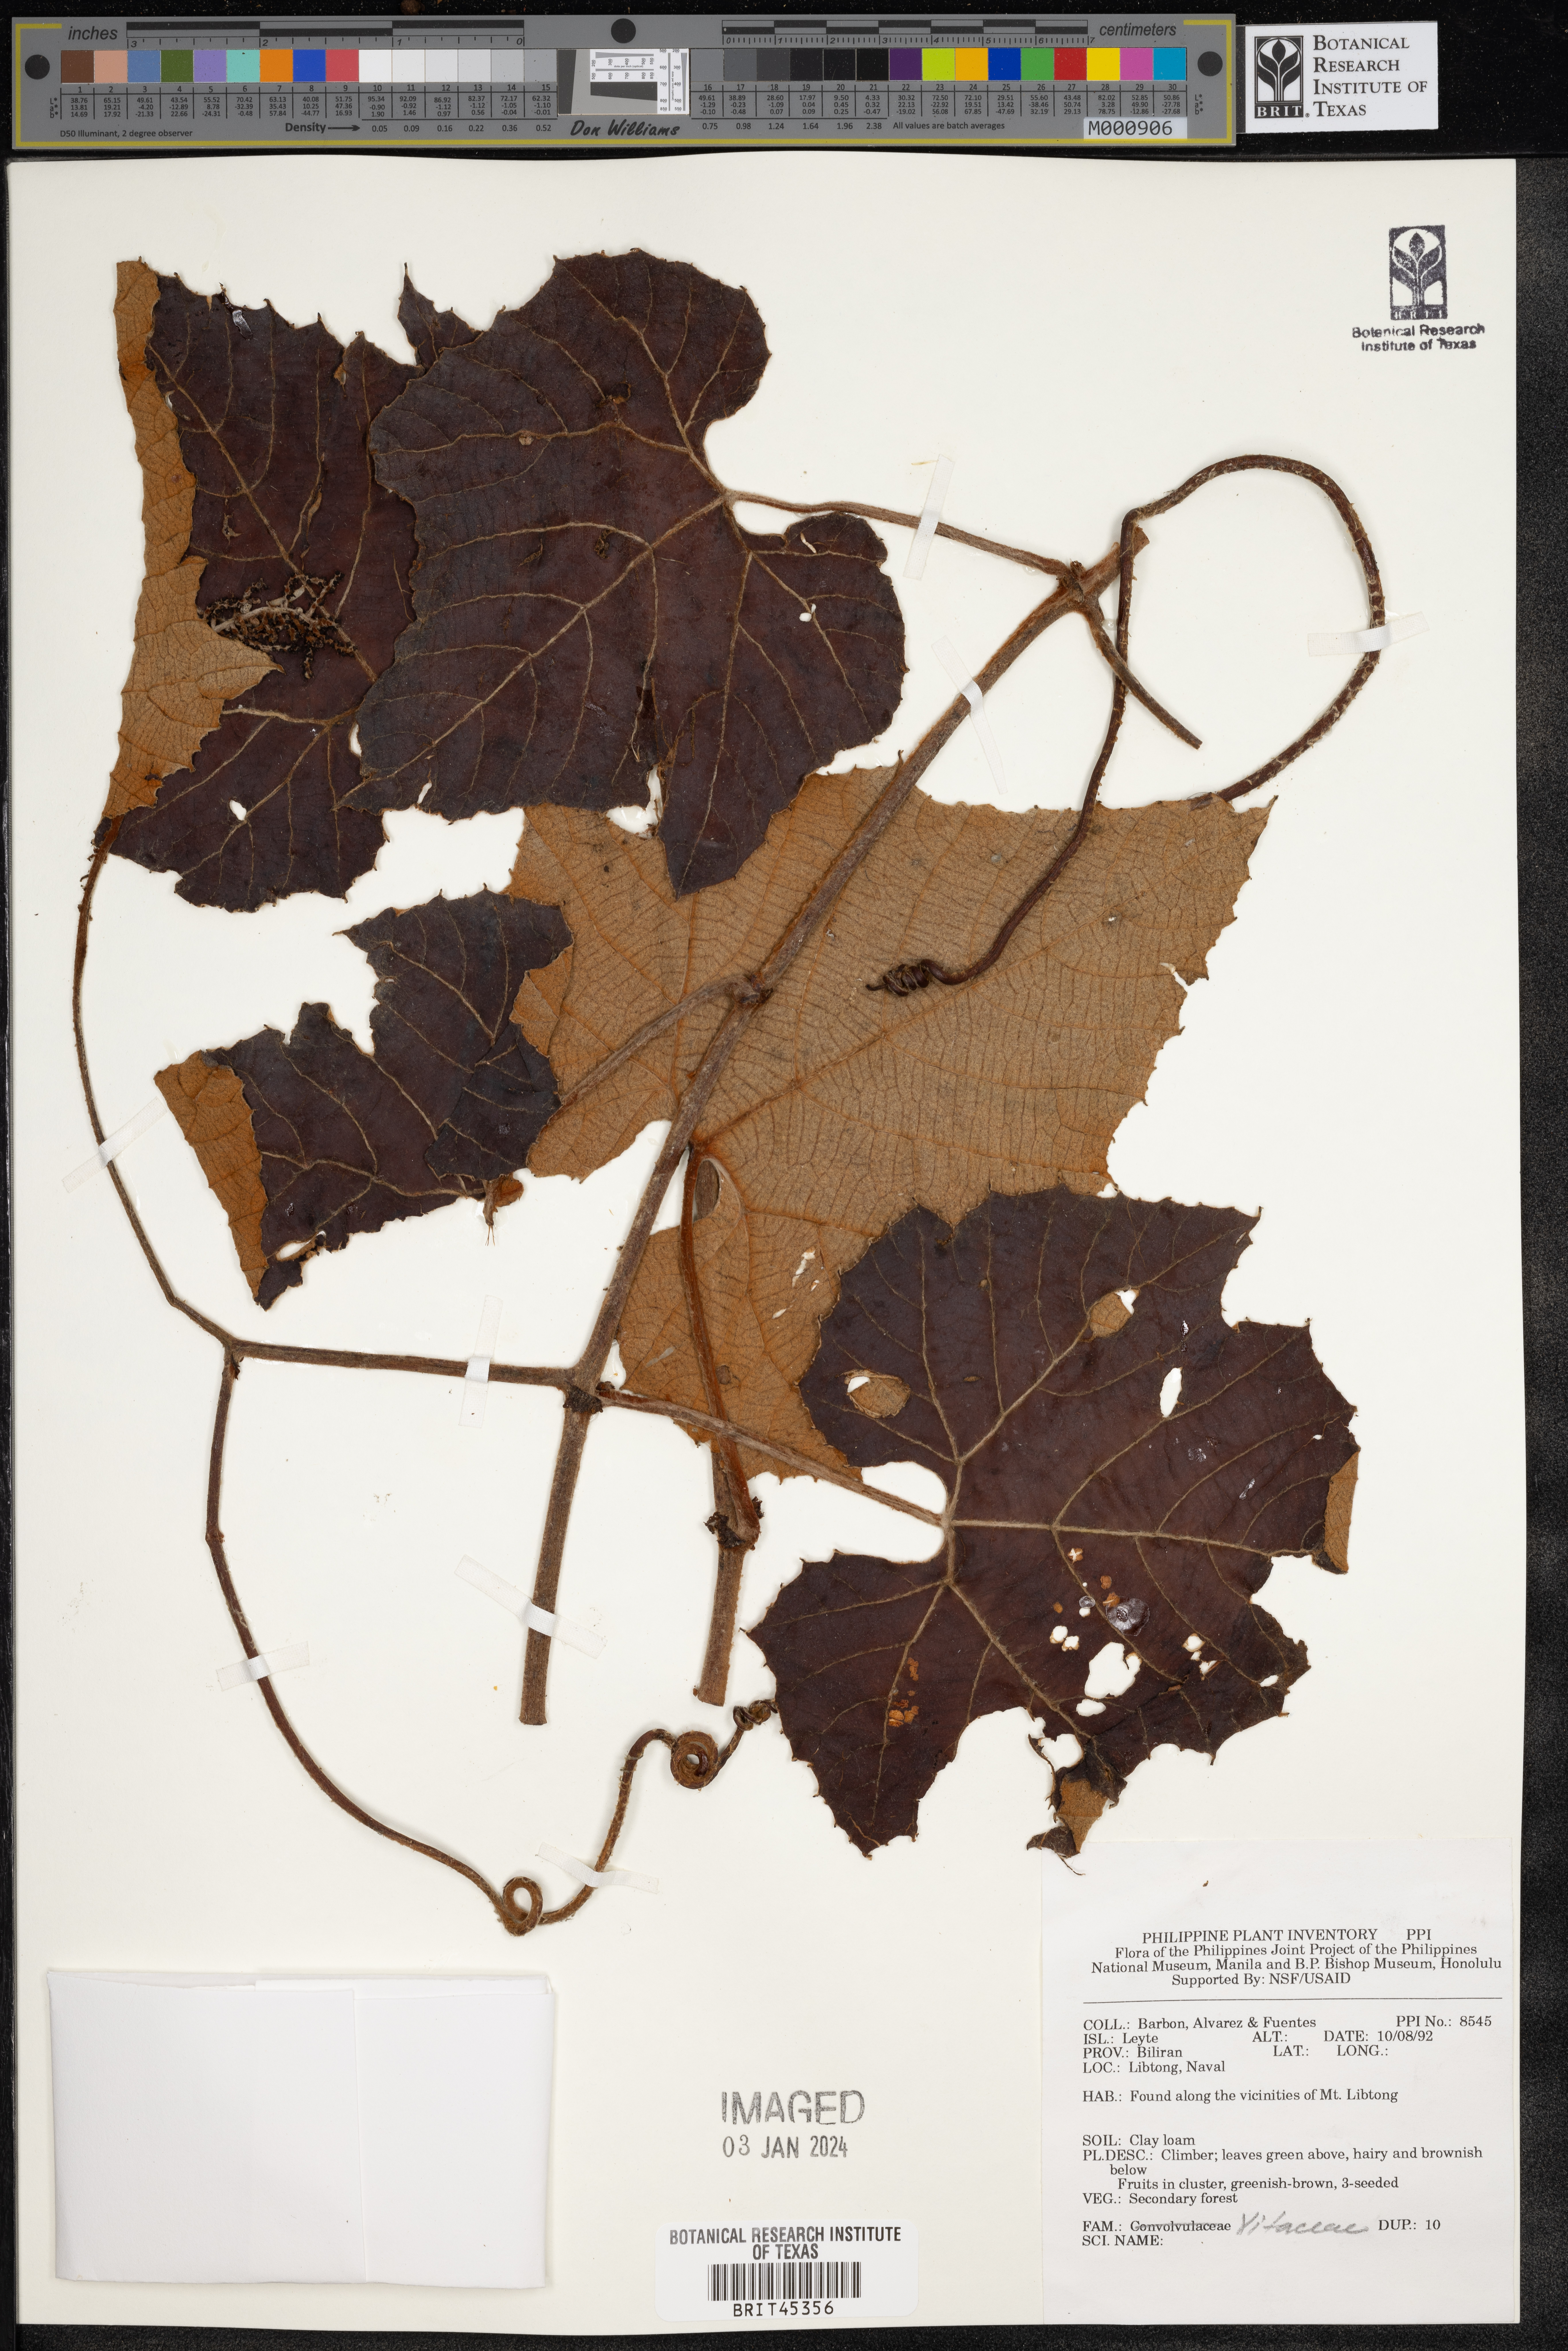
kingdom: Plantae
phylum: Tracheophyta
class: Magnoliopsida
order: Vitales
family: Vitaceae
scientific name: Vitaceae
